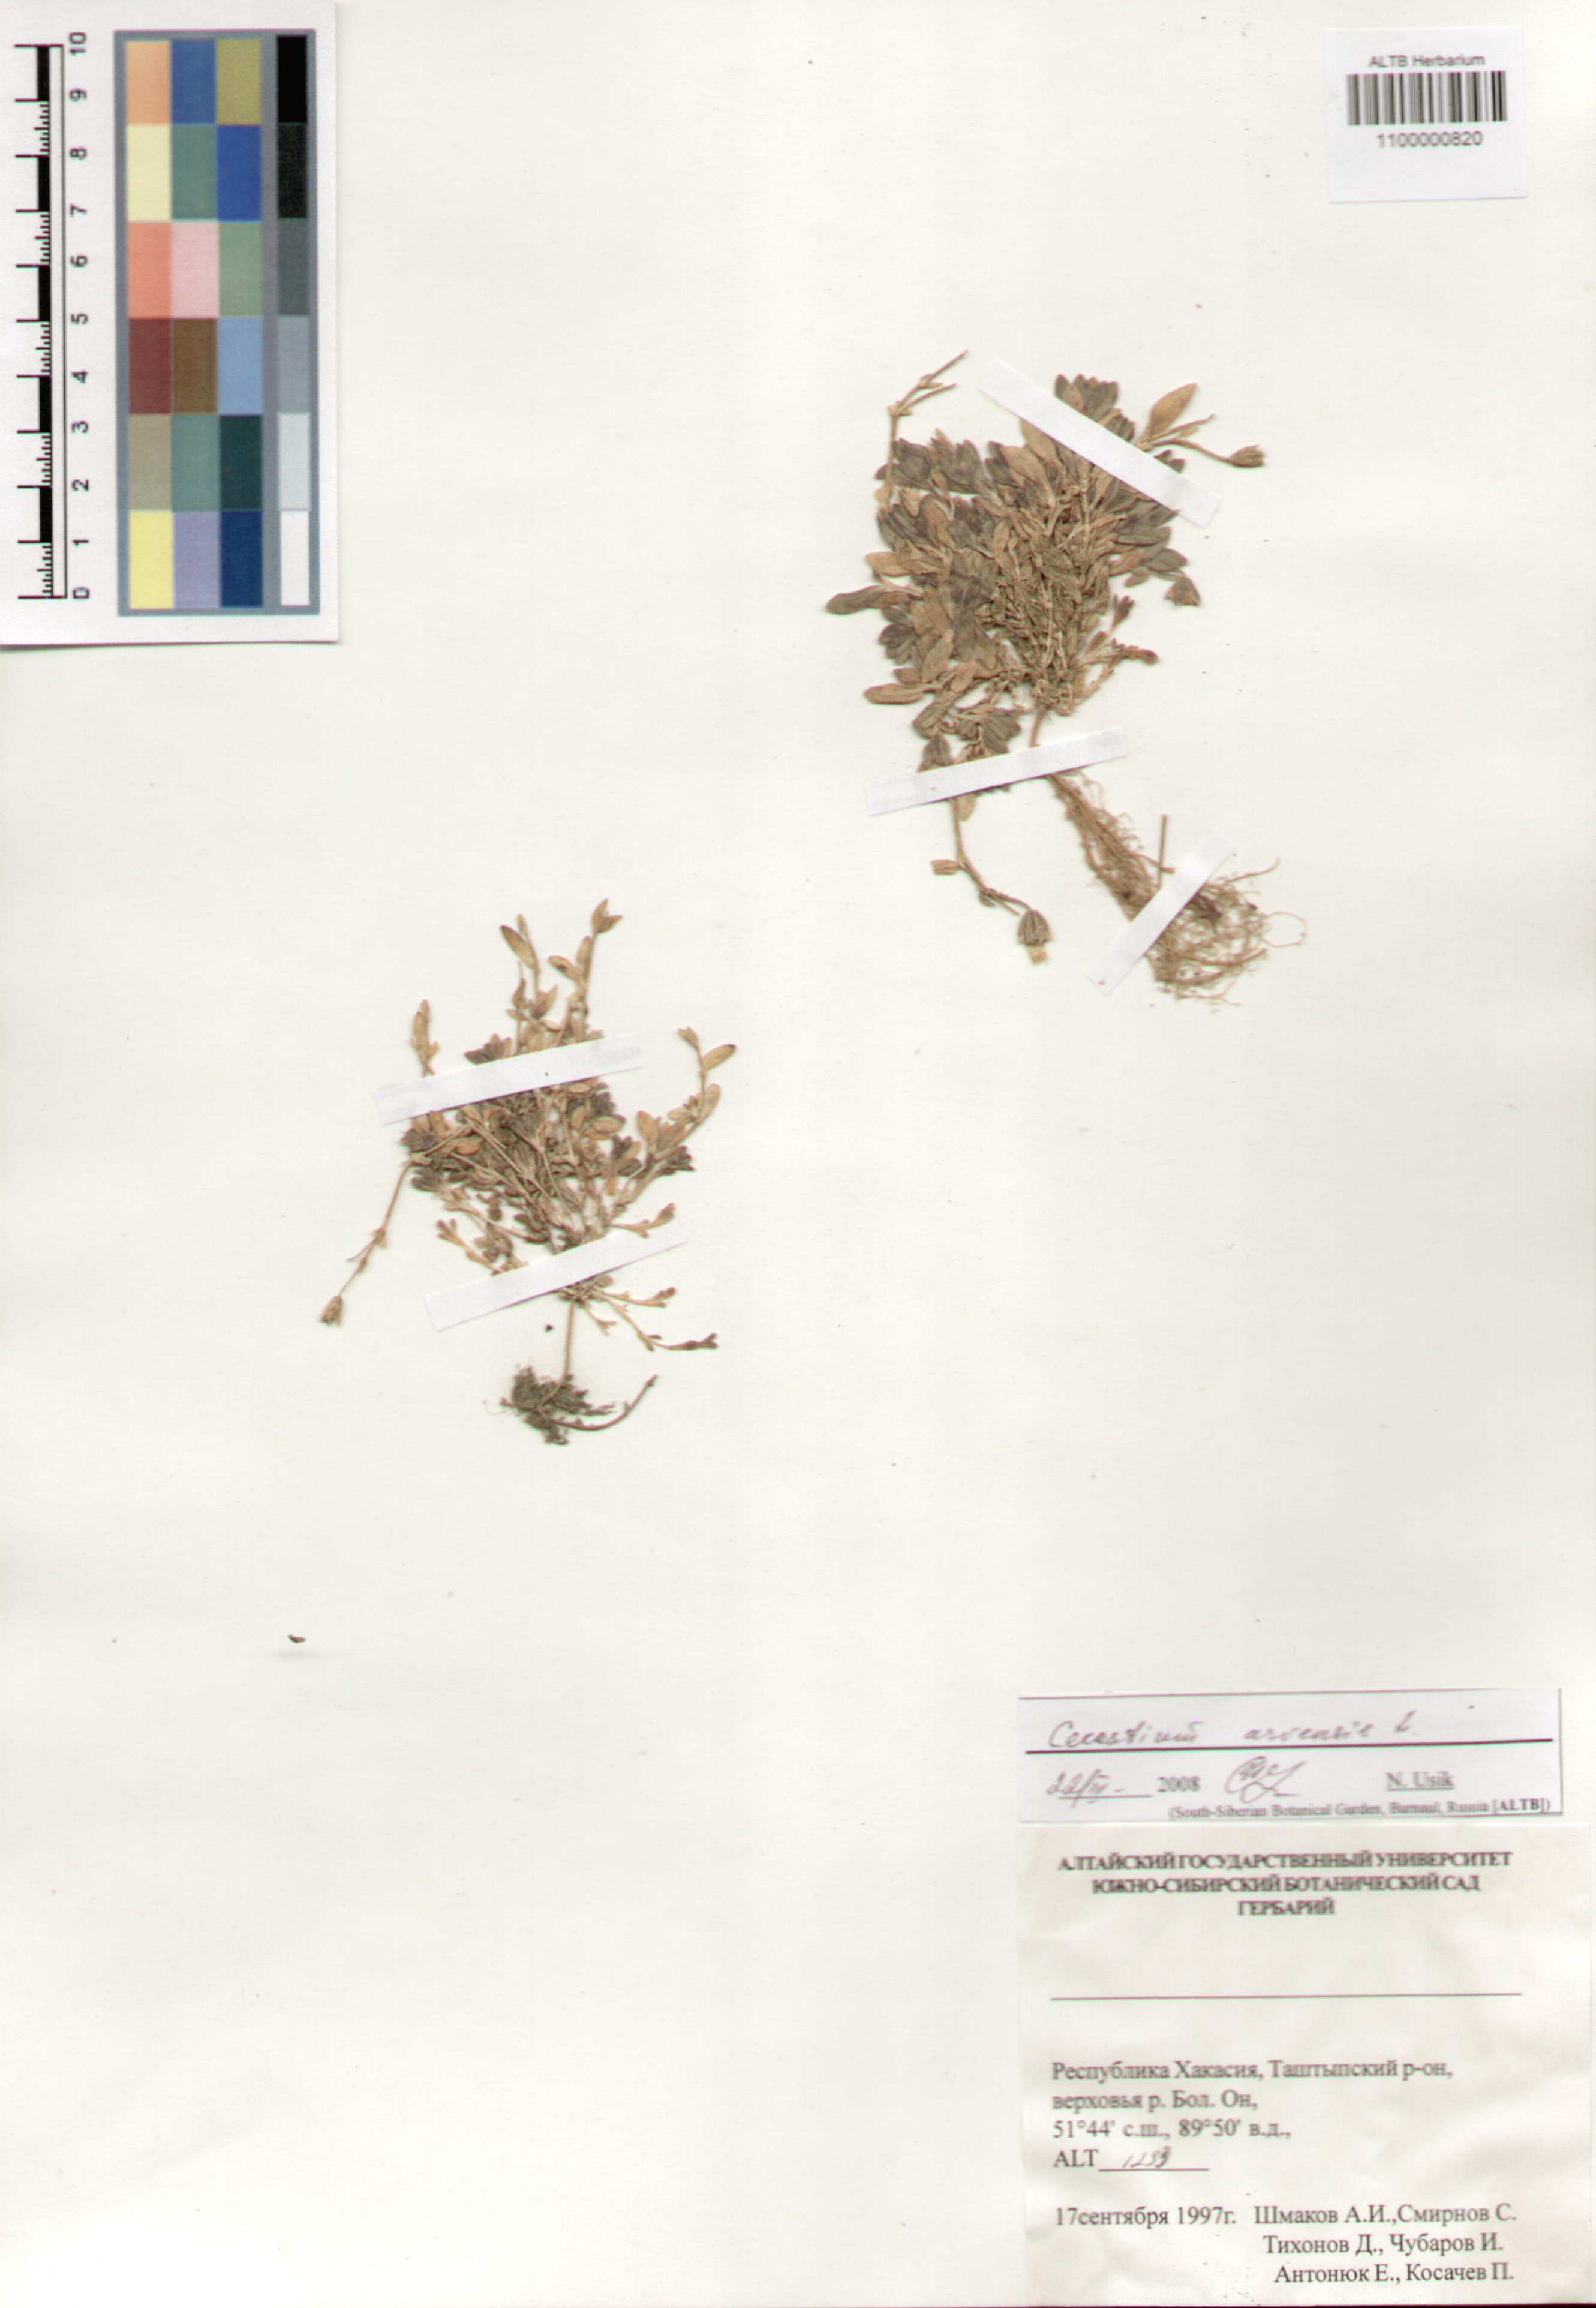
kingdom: Plantae
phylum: Tracheophyta
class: Magnoliopsida
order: Caryophyllales
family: Caryophyllaceae
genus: Cerastium
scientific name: Cerastium arvense
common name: Field mouse-ear
